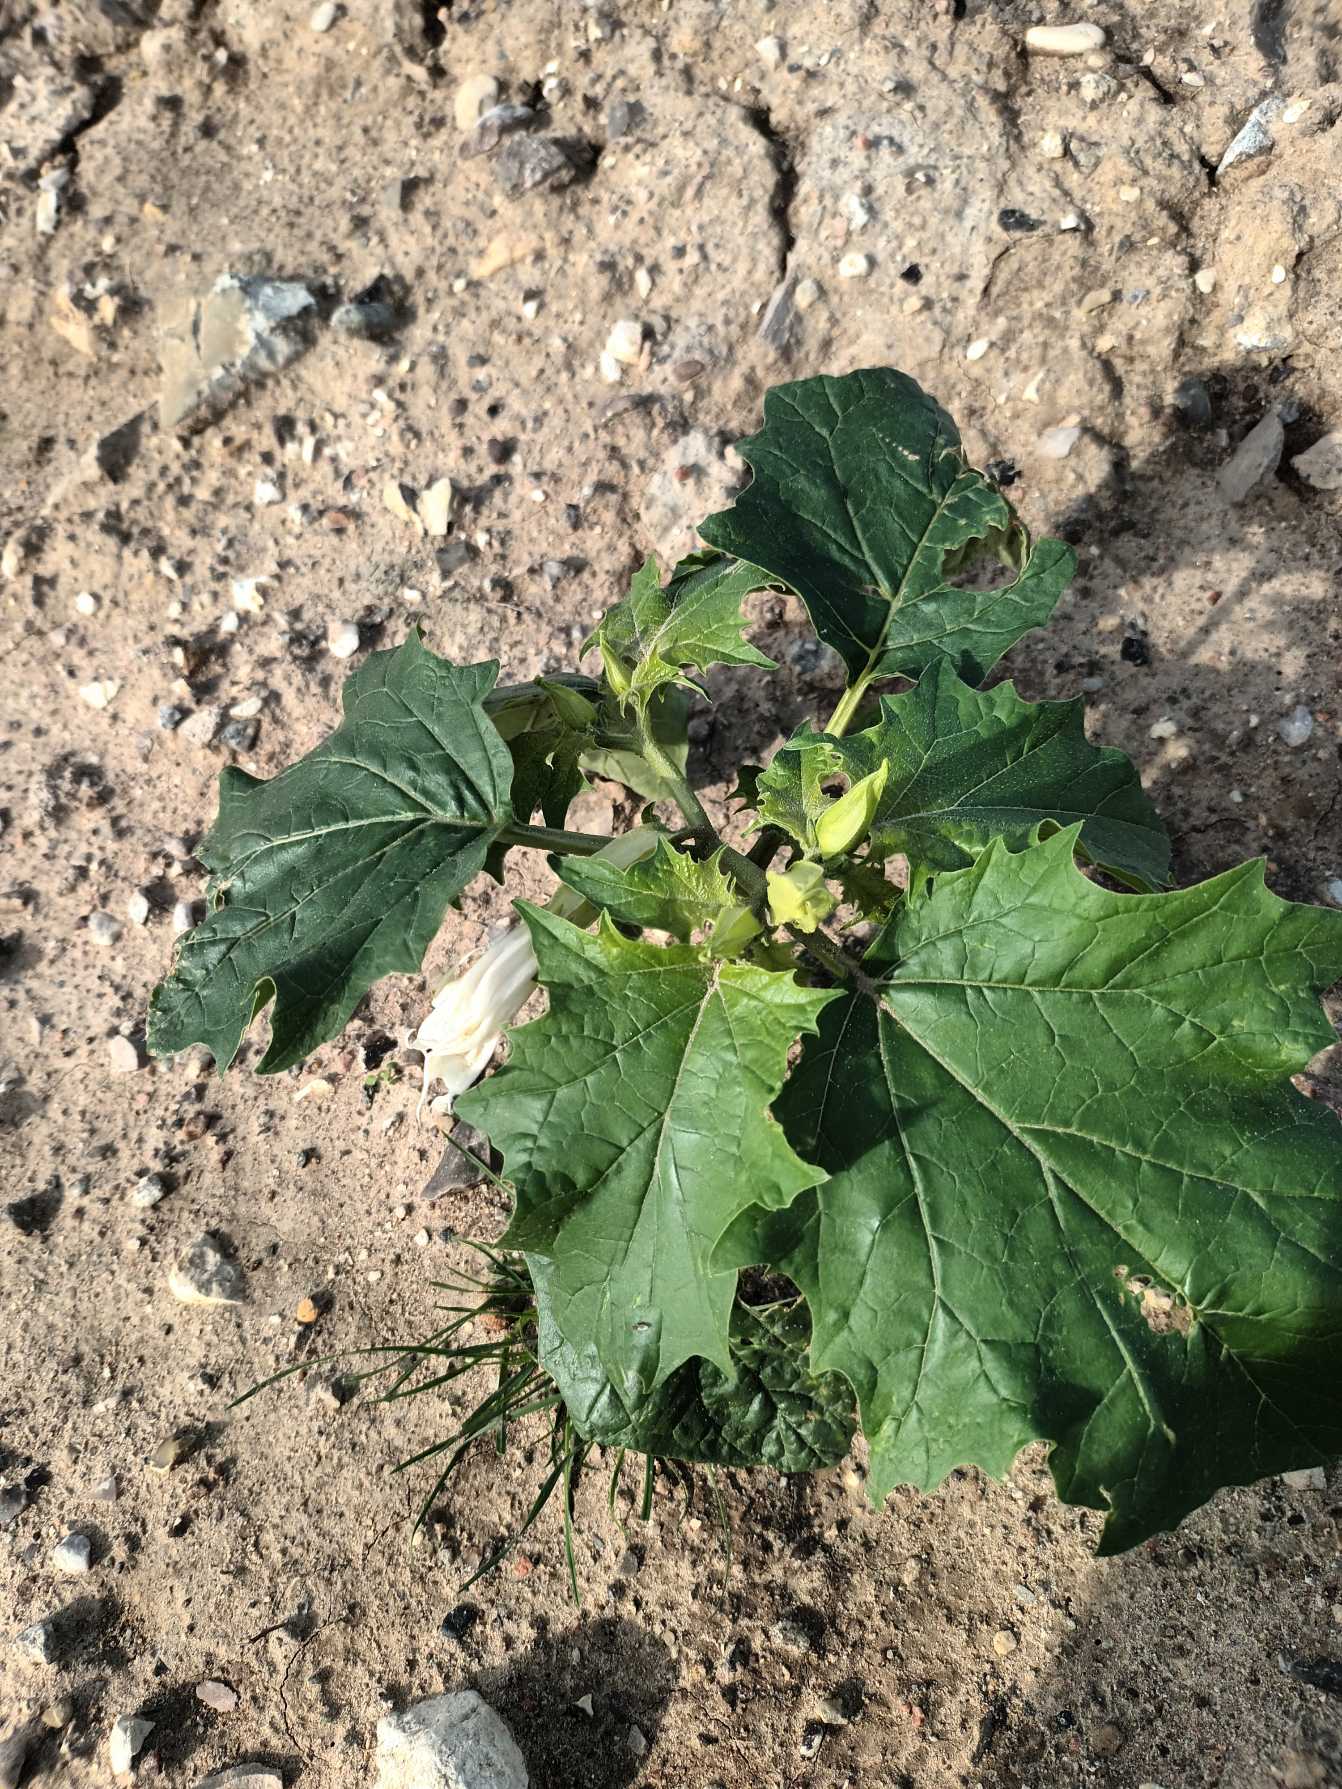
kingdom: Plantae
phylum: Tracheophyta
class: Magnoliopsida
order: Solanales
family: Solanaceae
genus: Datura
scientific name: Datura stramonium
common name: Pigæble
